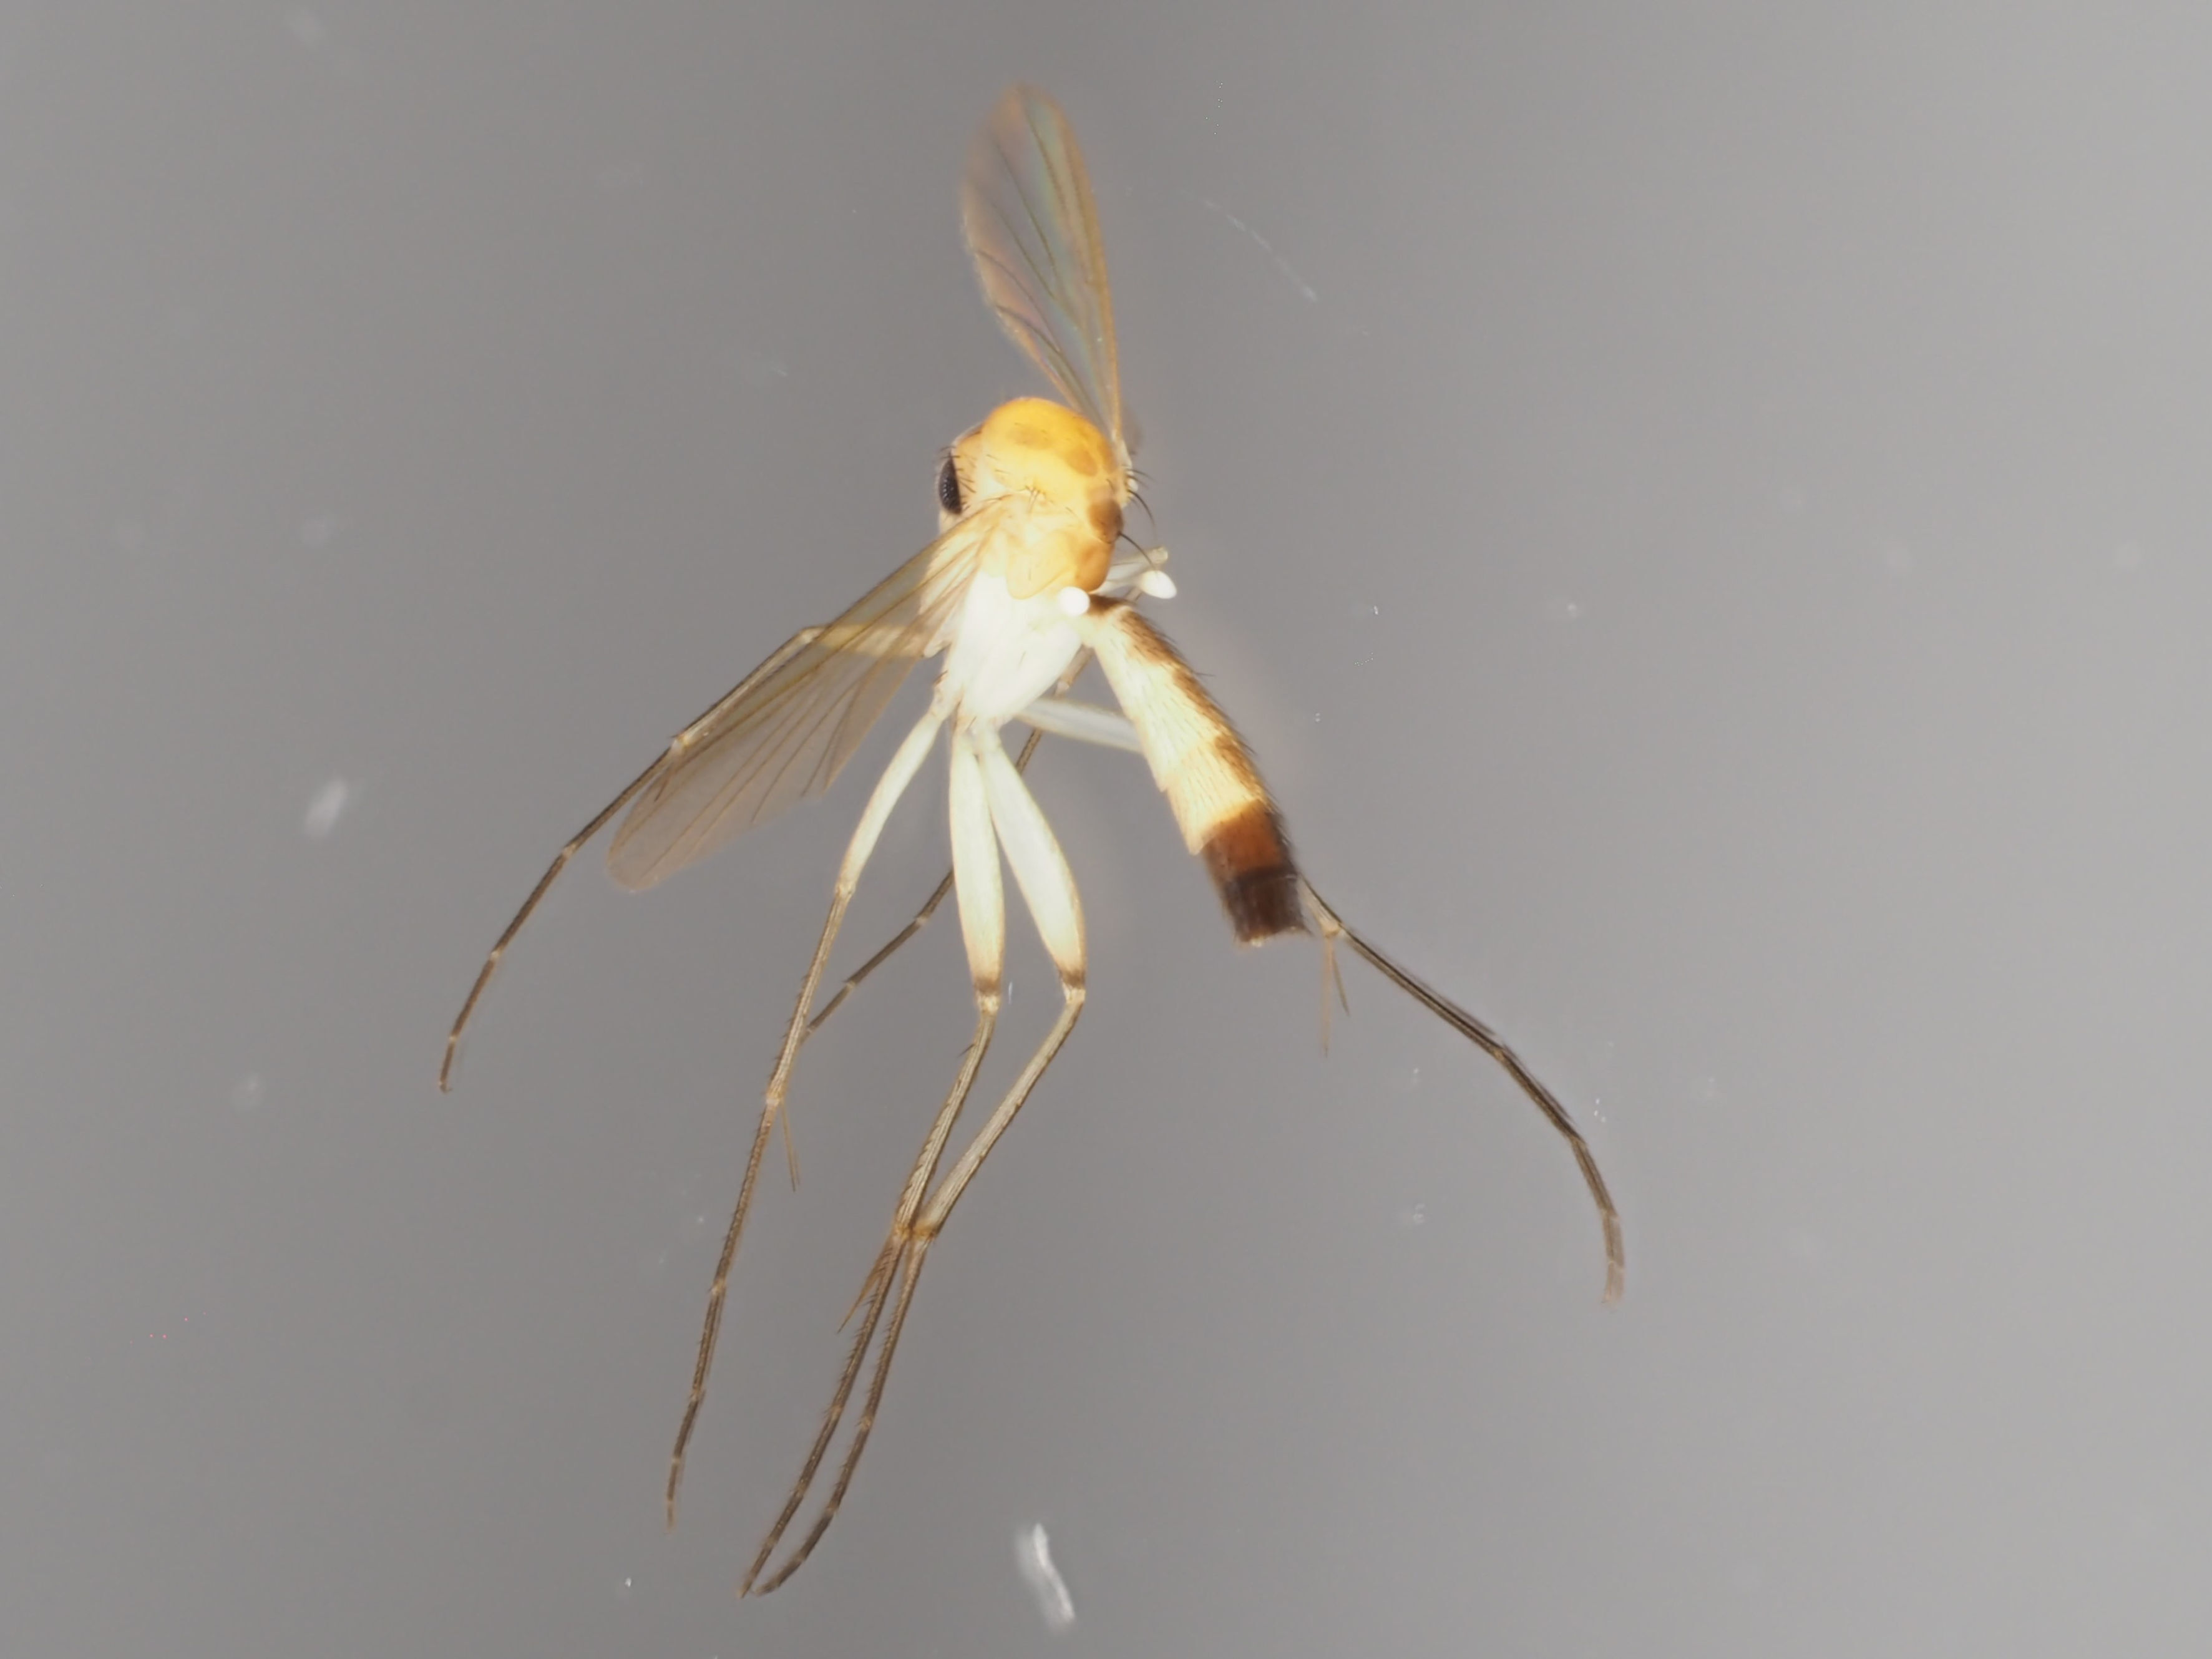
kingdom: Animalia
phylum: Arthropoda
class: Insecta
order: Diptera
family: Mycetophilidae
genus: Brevicornu
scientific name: Brevicornu sericoma
